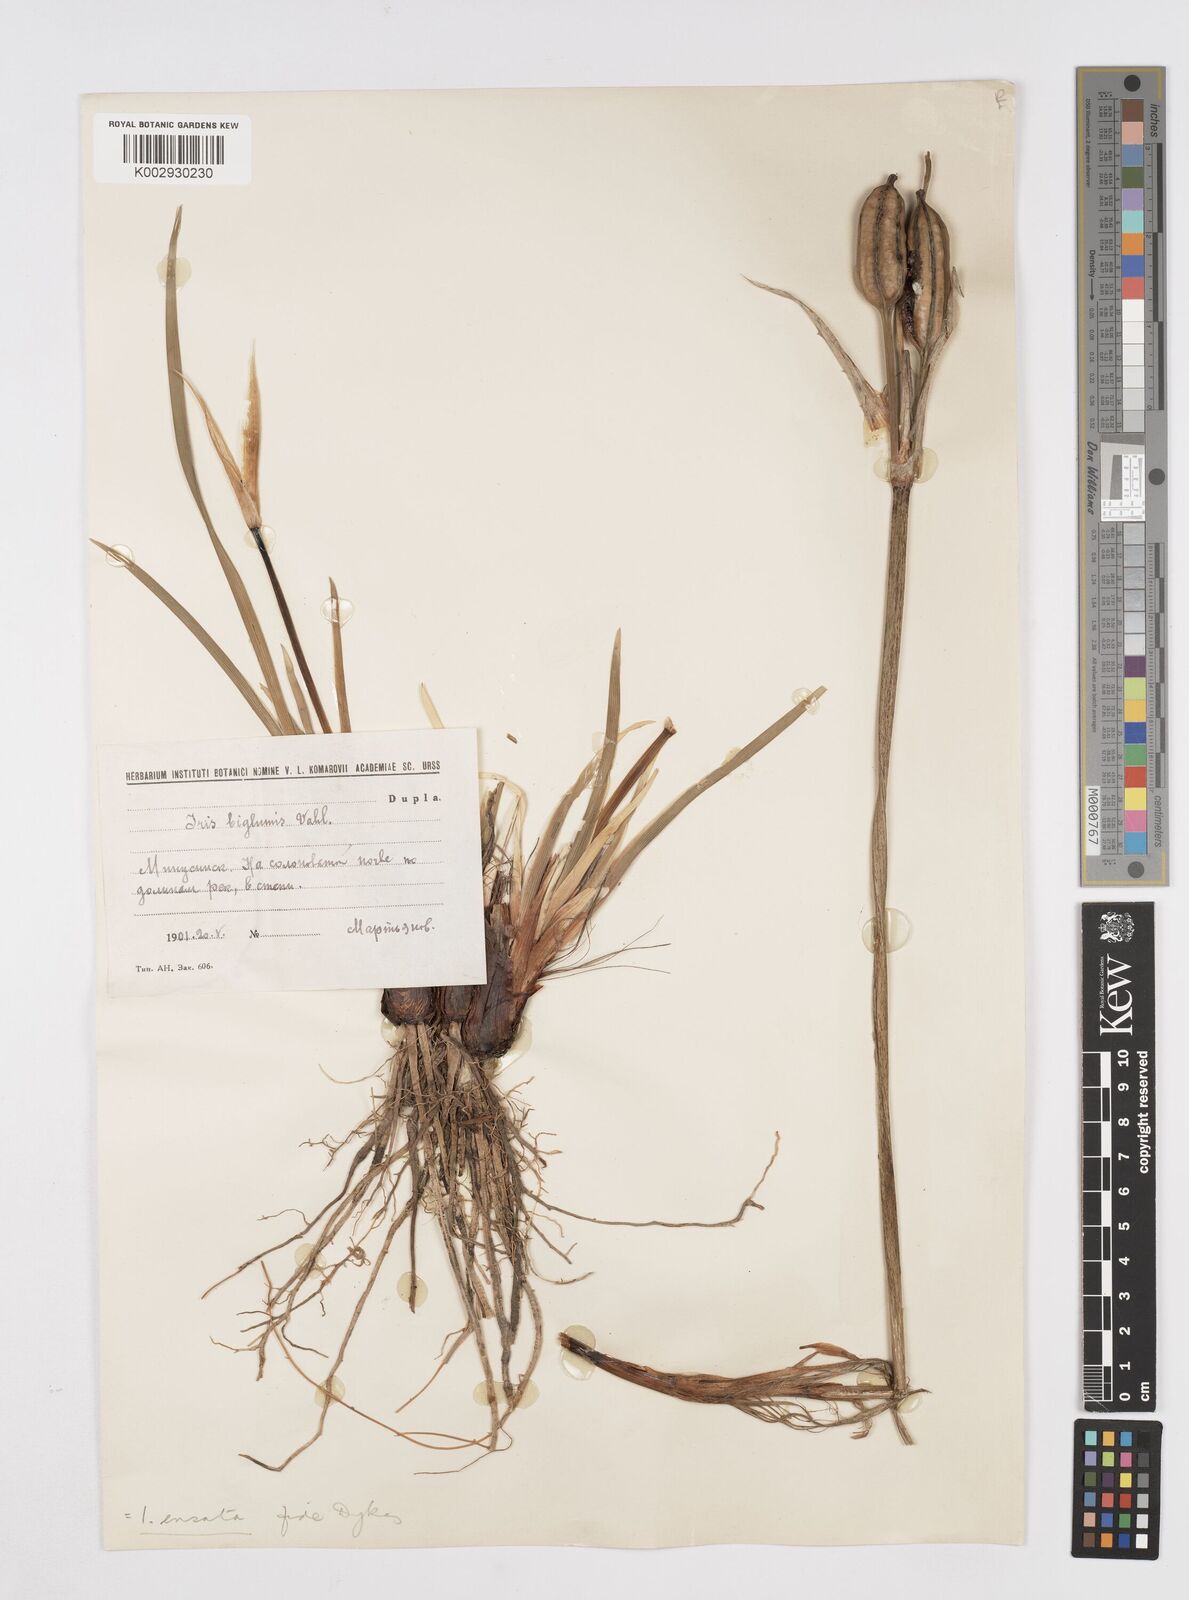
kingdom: Plantae
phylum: Tracheophyta
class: Liliopsida
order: Asparagales
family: Iridaceae
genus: Iris
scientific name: Iris lactea
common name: White-flower chinese iris
